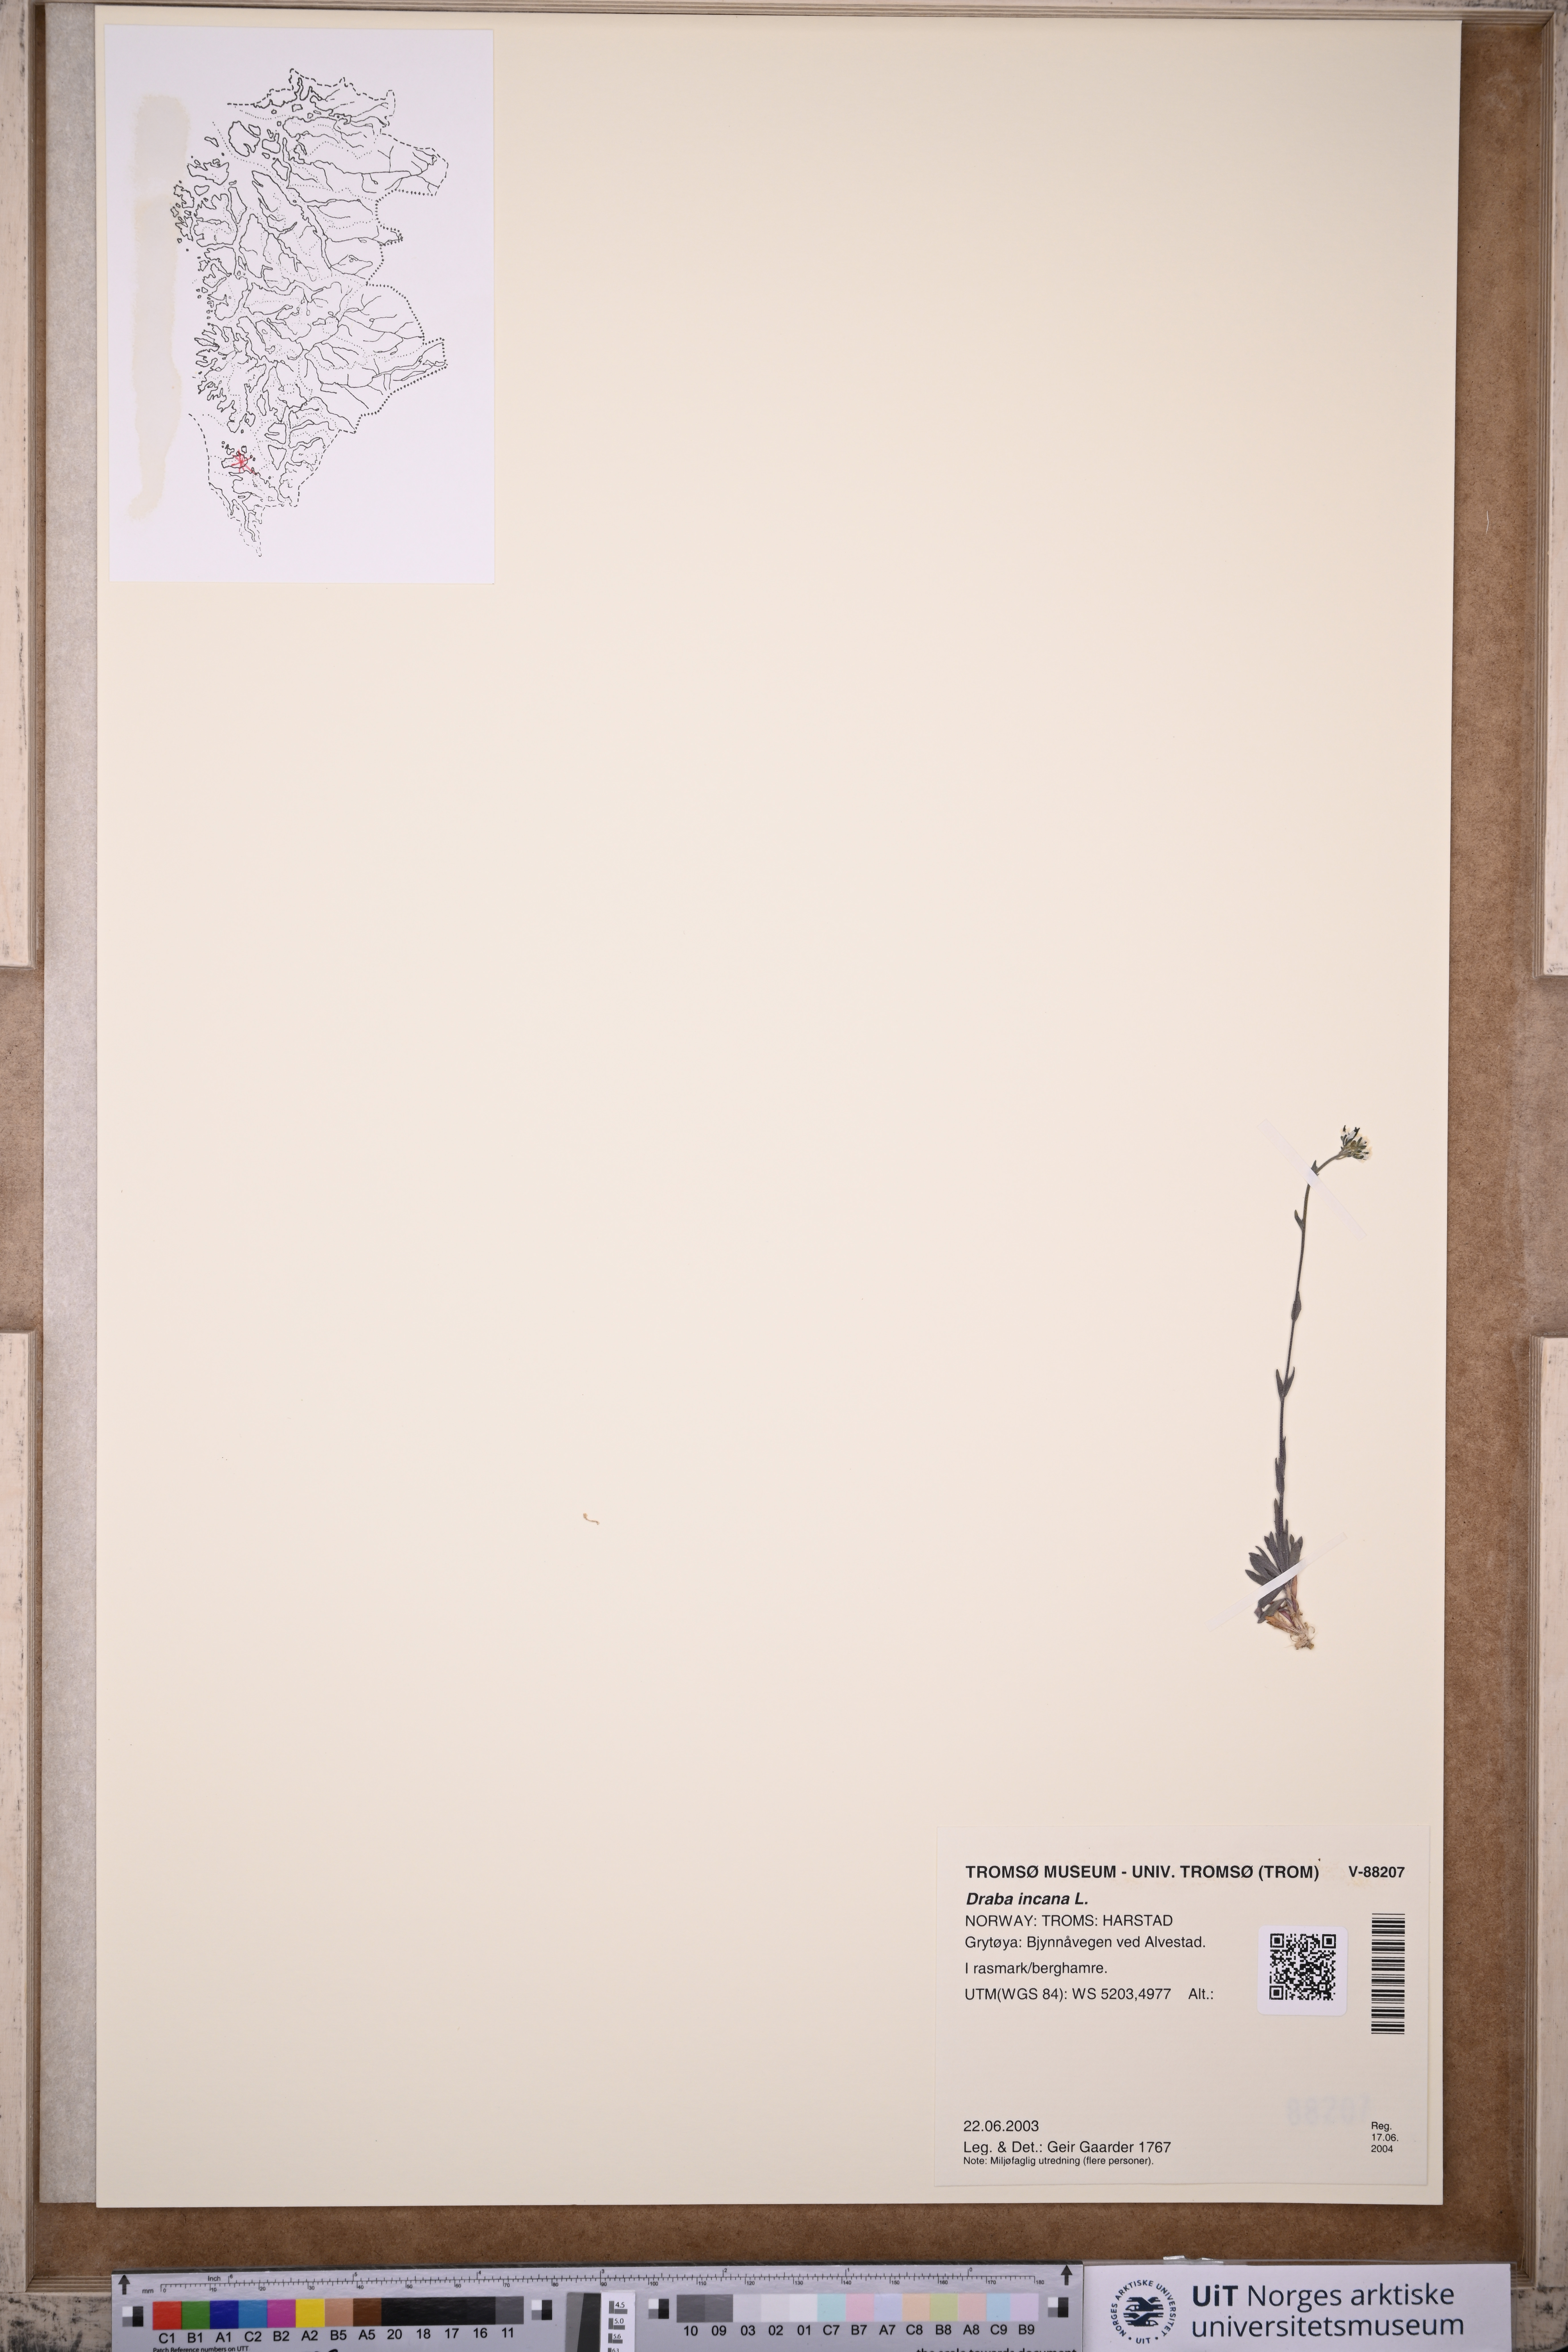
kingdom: Plantae
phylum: Tracheophyta
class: Magnoliopsida
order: Brassicales
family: Brassicaceae
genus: Draba
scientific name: Draba incana
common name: Hoary whitlow-grass
